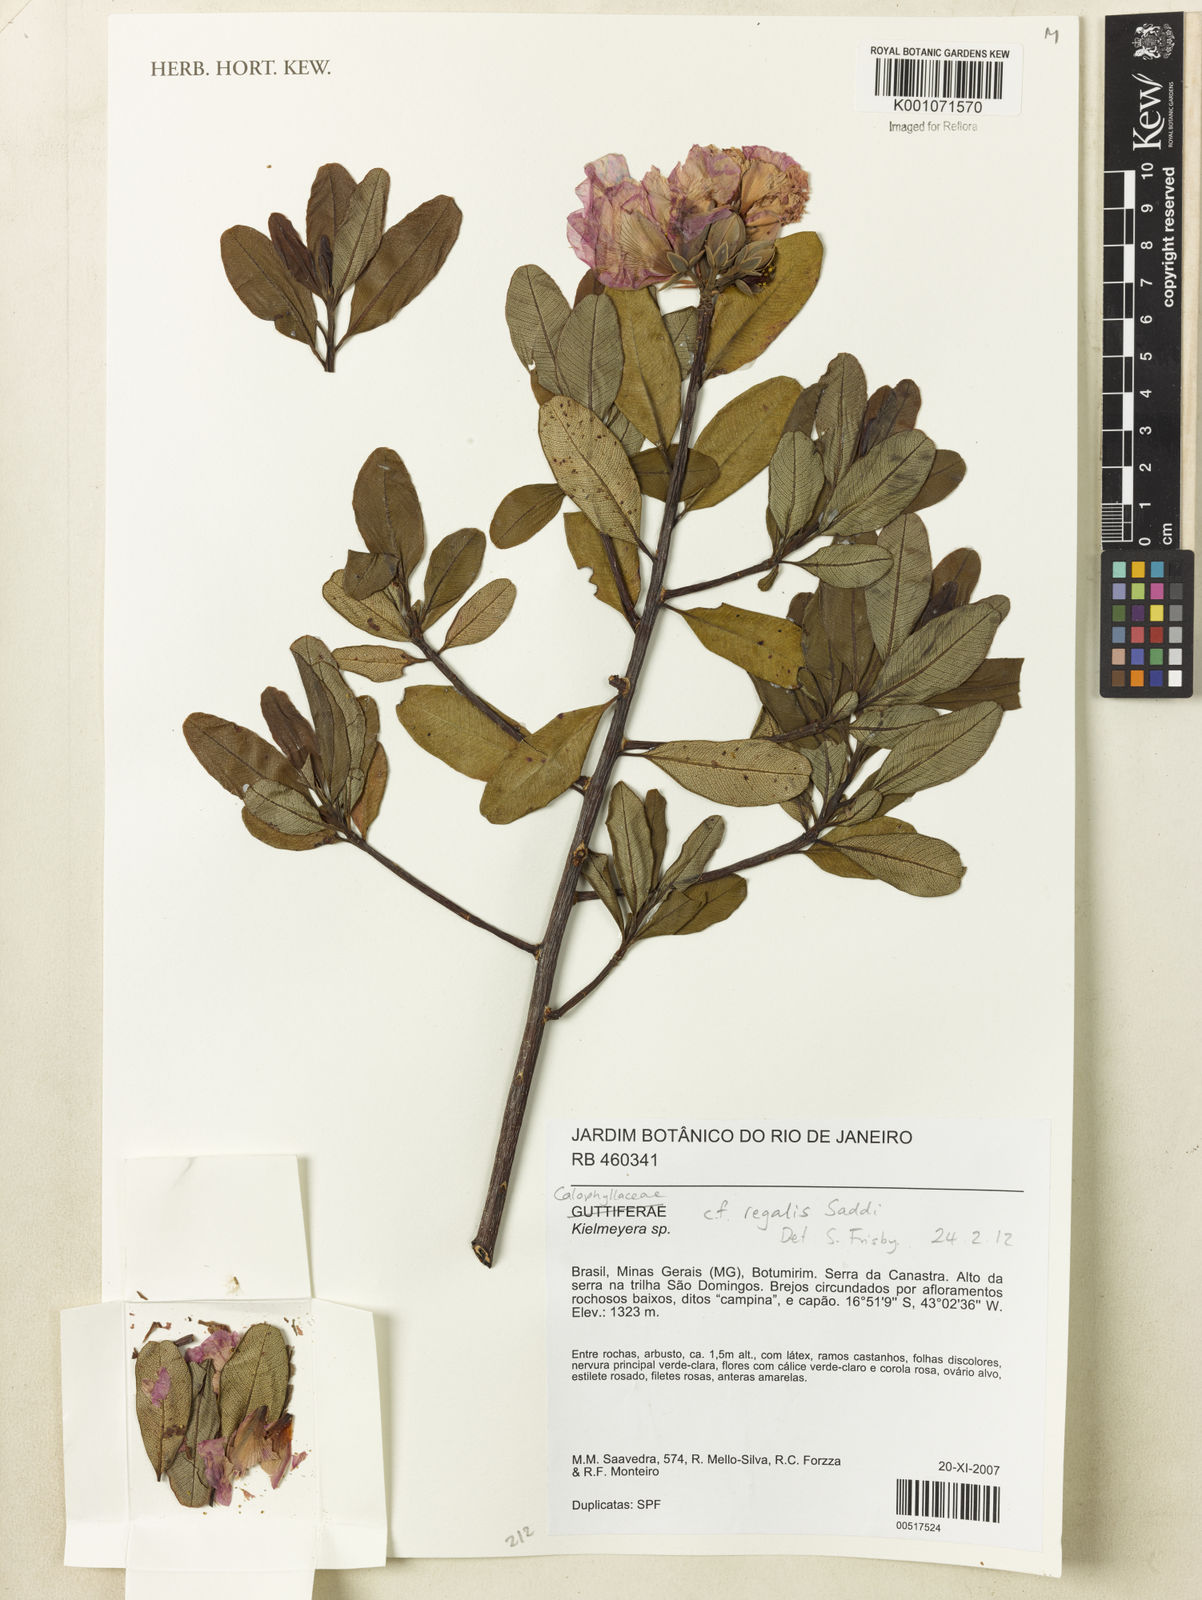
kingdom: Plantae
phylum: Tracheophyta
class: Magnoliopsida
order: Malpighiales
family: Calophyllaceae
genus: Kielmeyera
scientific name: Kielmeyera regalis
